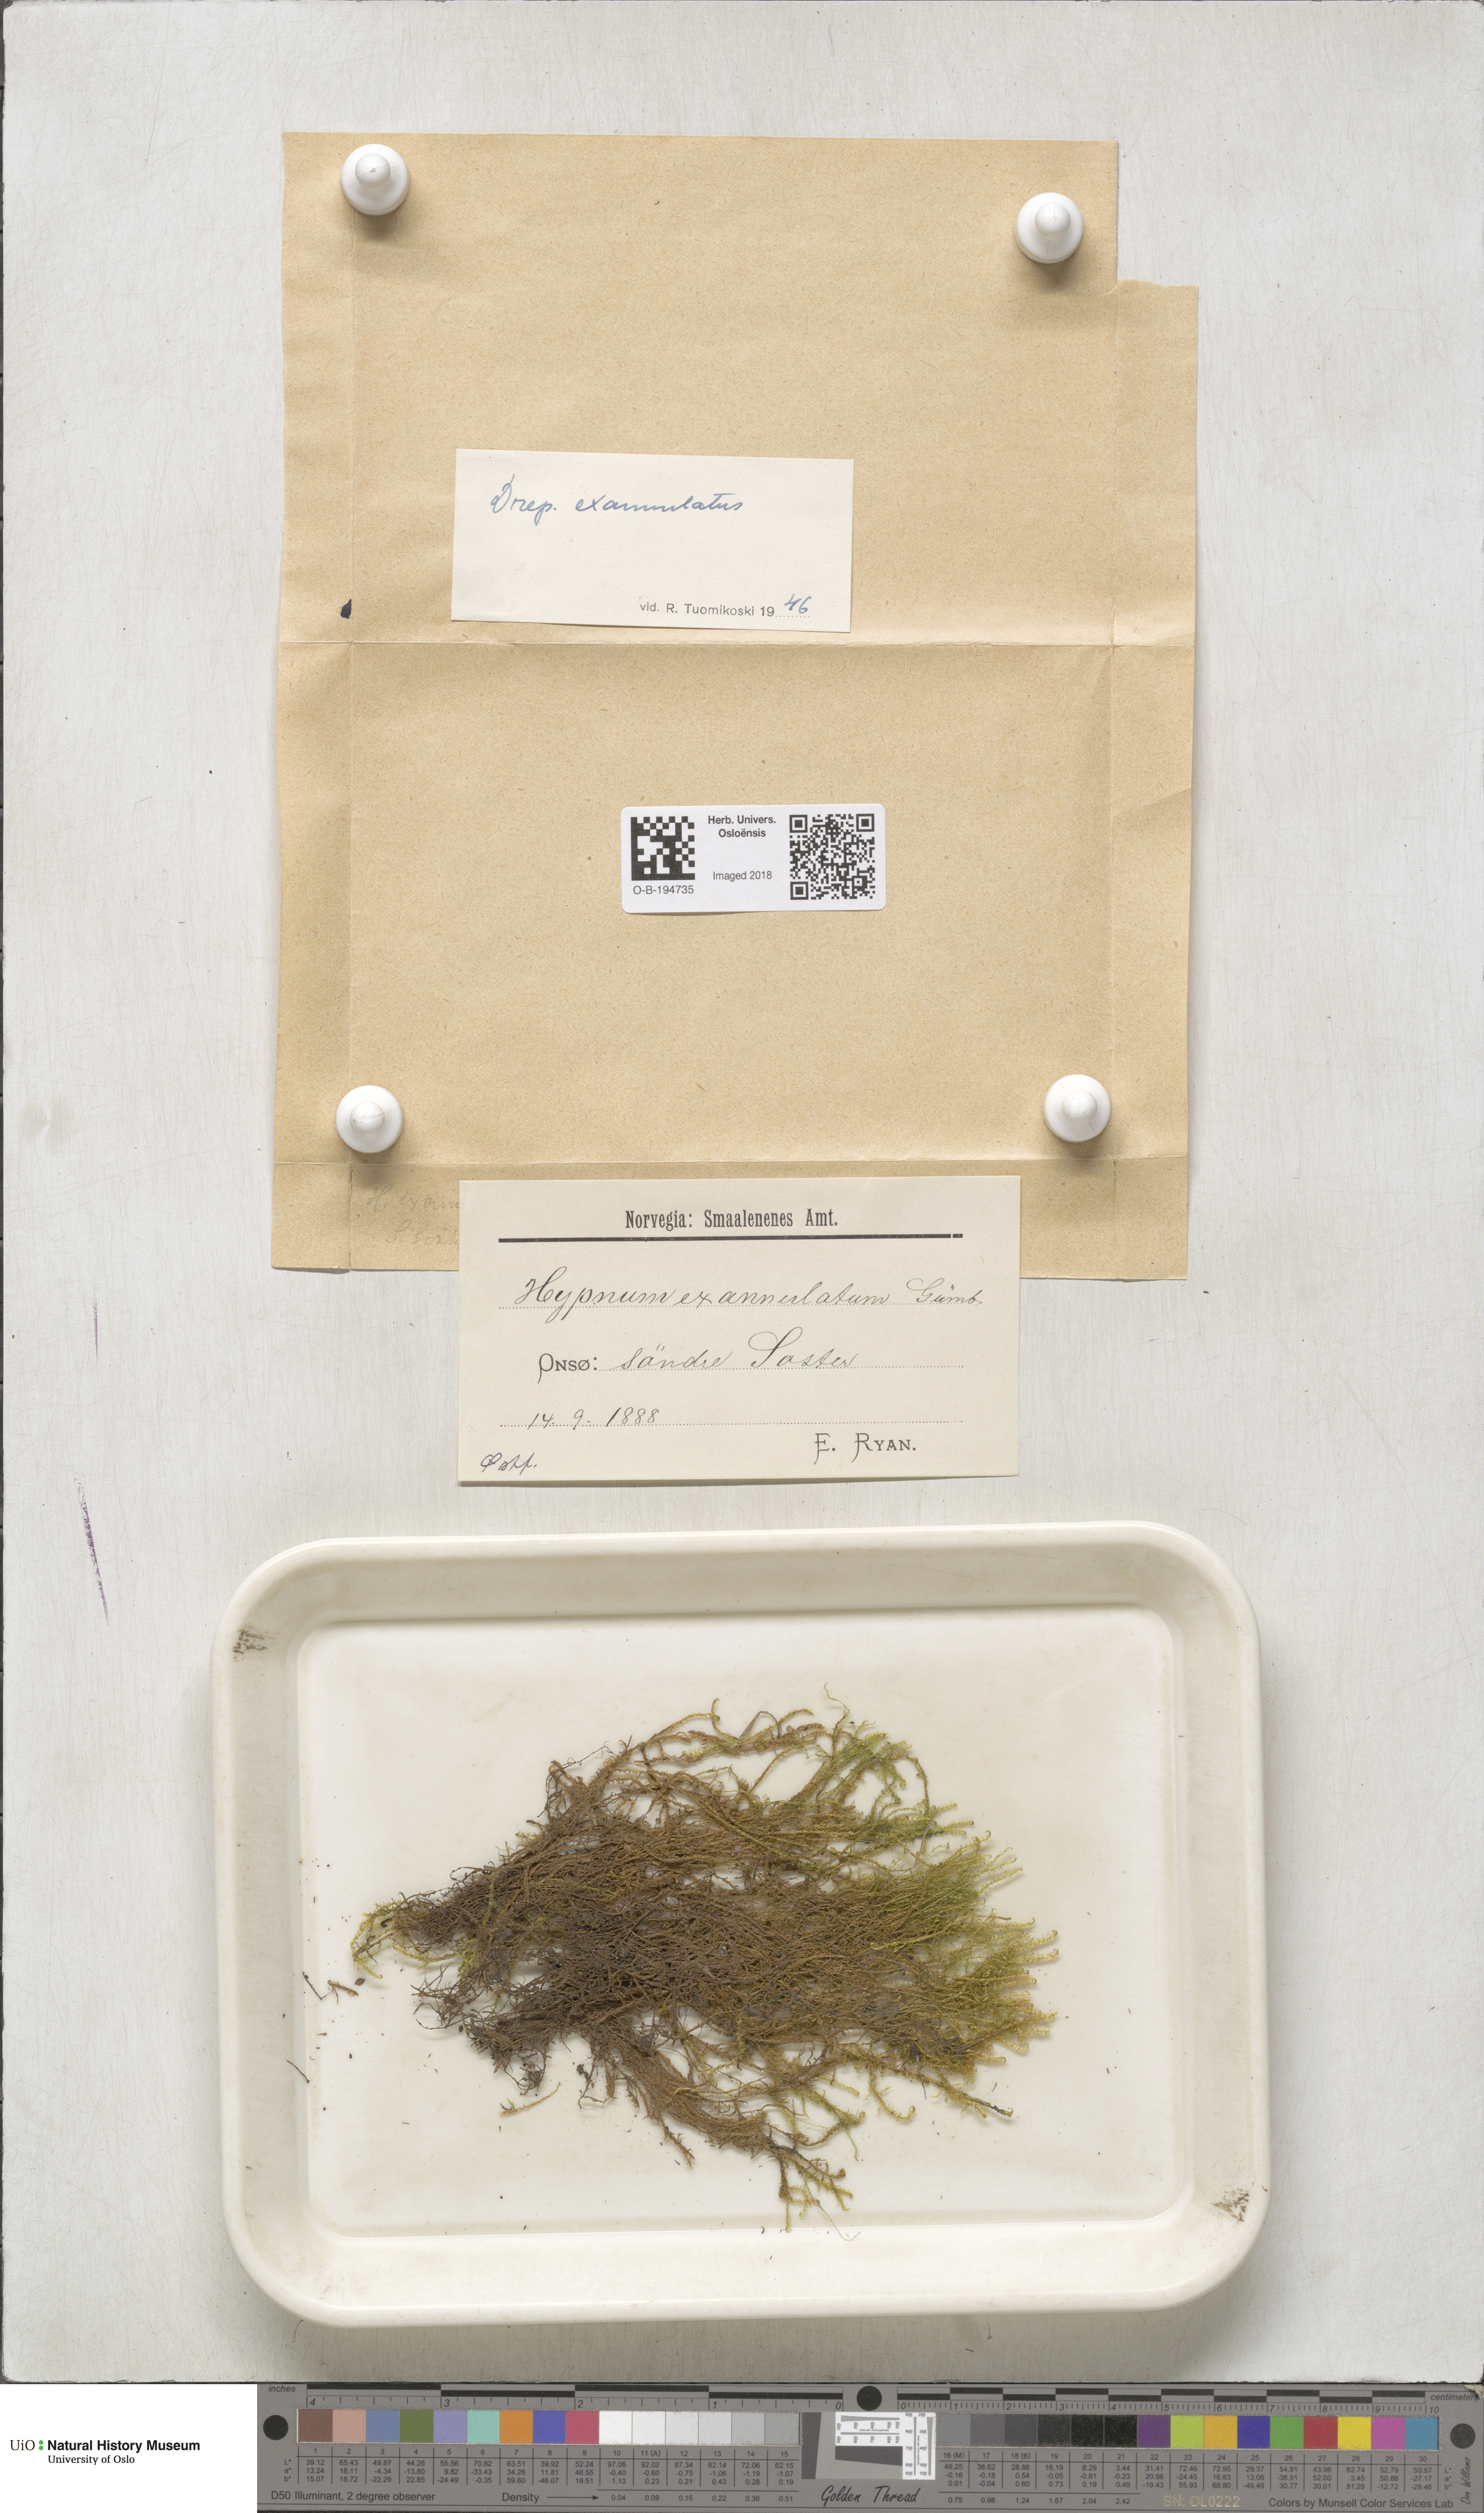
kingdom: Plantae
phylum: Bryophyta
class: Bryopsida
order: Hypnales
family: Calliergonaceae
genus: Sarmentypnum
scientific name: Sarmentypnum exannulatum
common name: Ringless spoon moss
